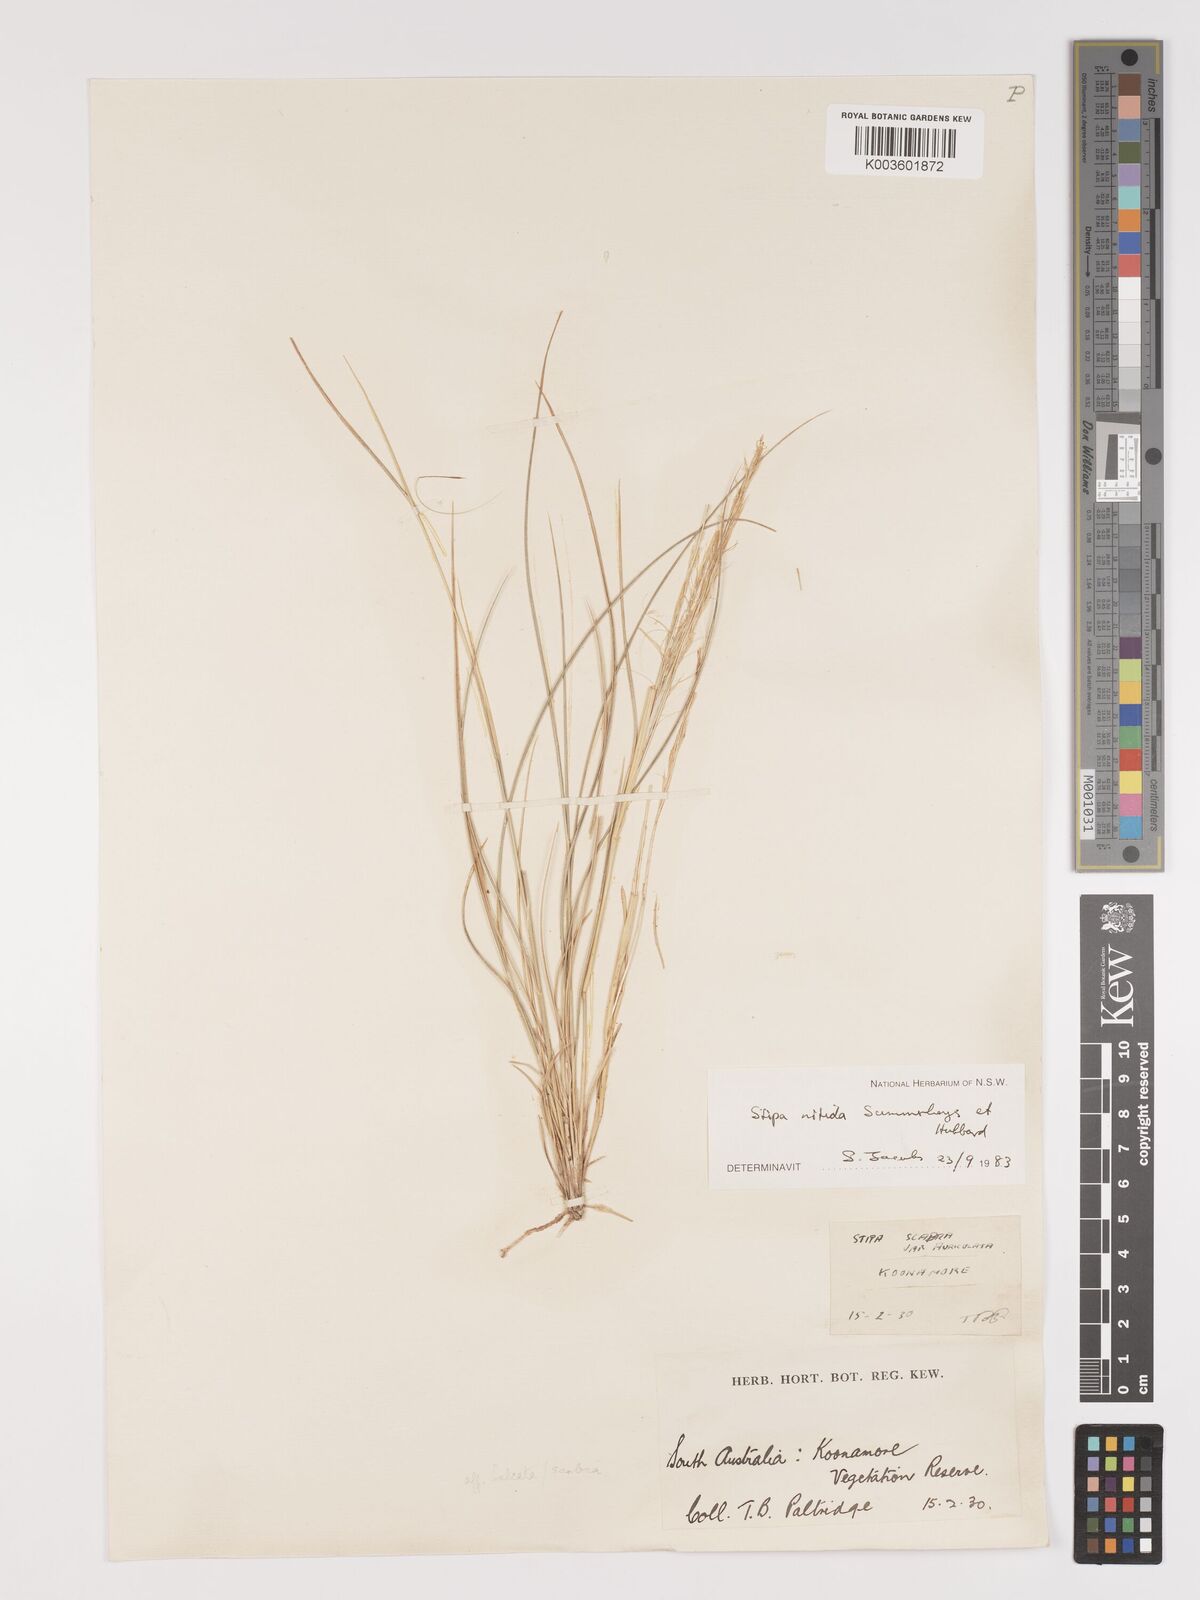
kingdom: Plantae
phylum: Tracheophyta
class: Liliopsida
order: Poales
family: Poaceae
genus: Austrostipa
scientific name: Austrostipa nitida
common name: Balcarra grass
